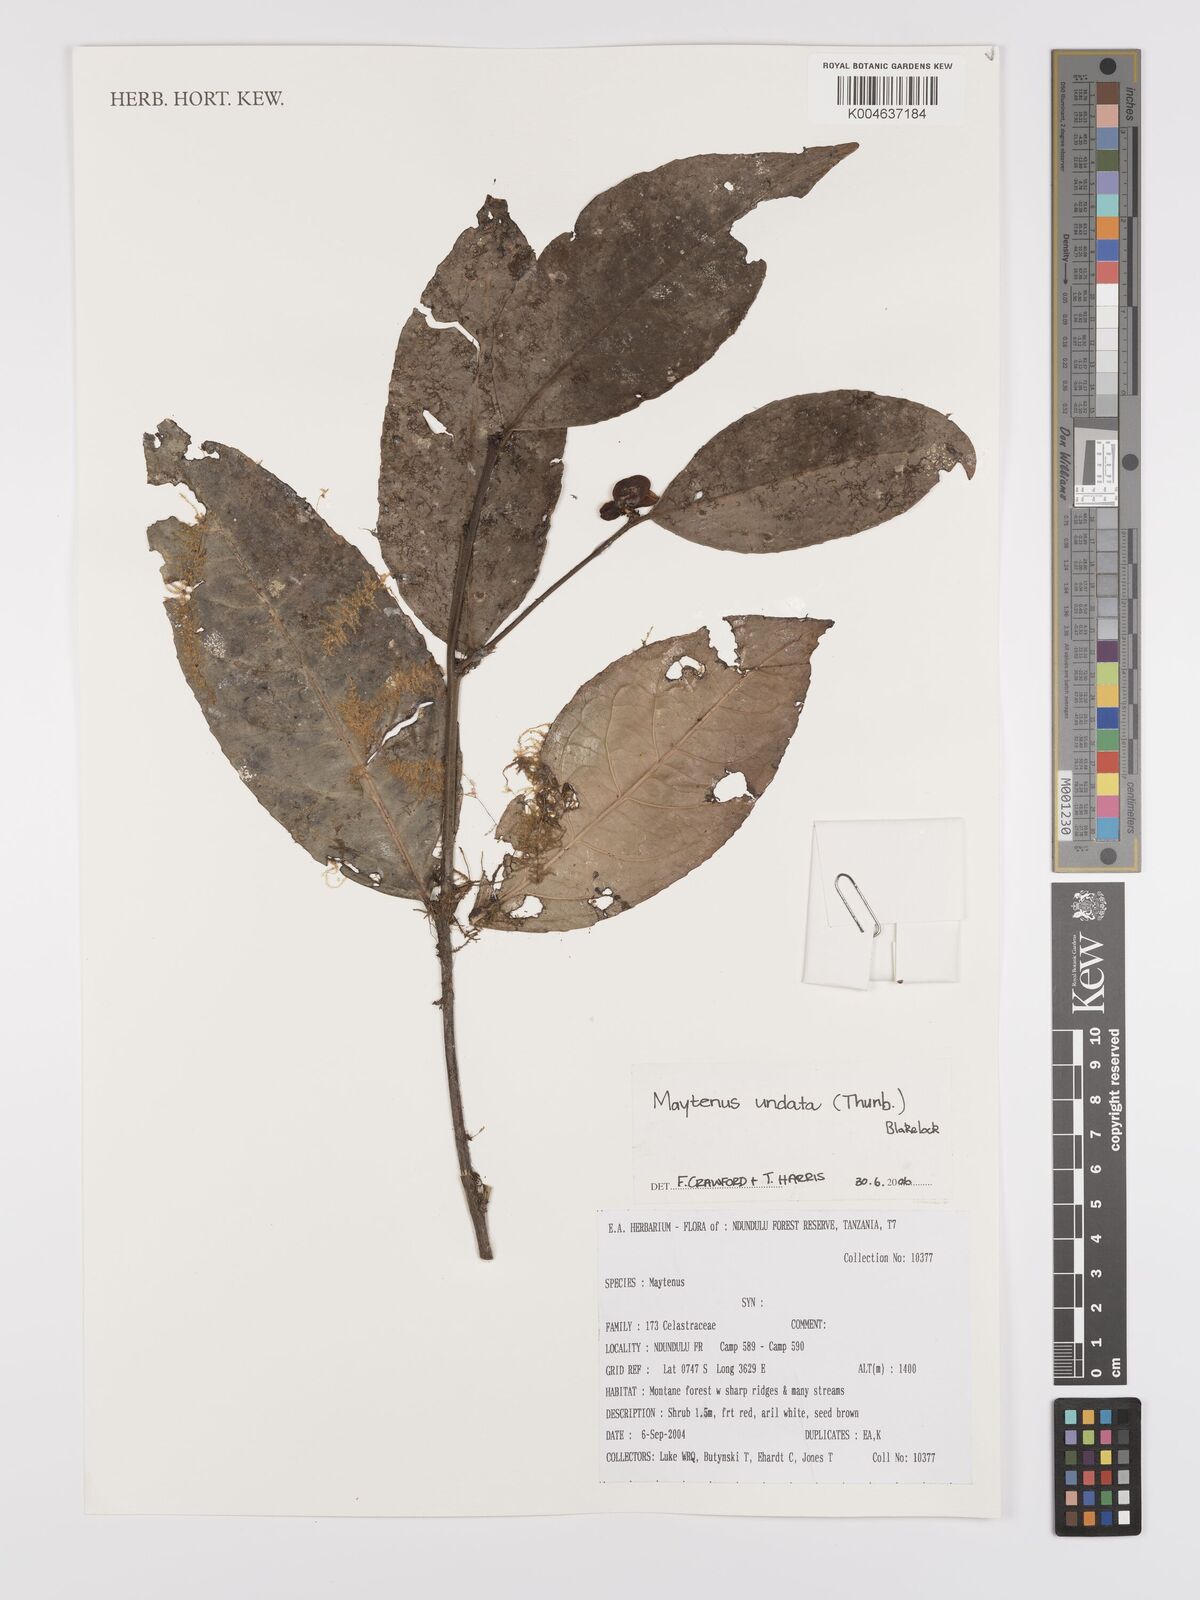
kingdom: Plantae
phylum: Tracheophyta
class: Magnoliopsida
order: Celastrales
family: Celastraceae
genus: Gymnosporia
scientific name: Gymnosporia undata
